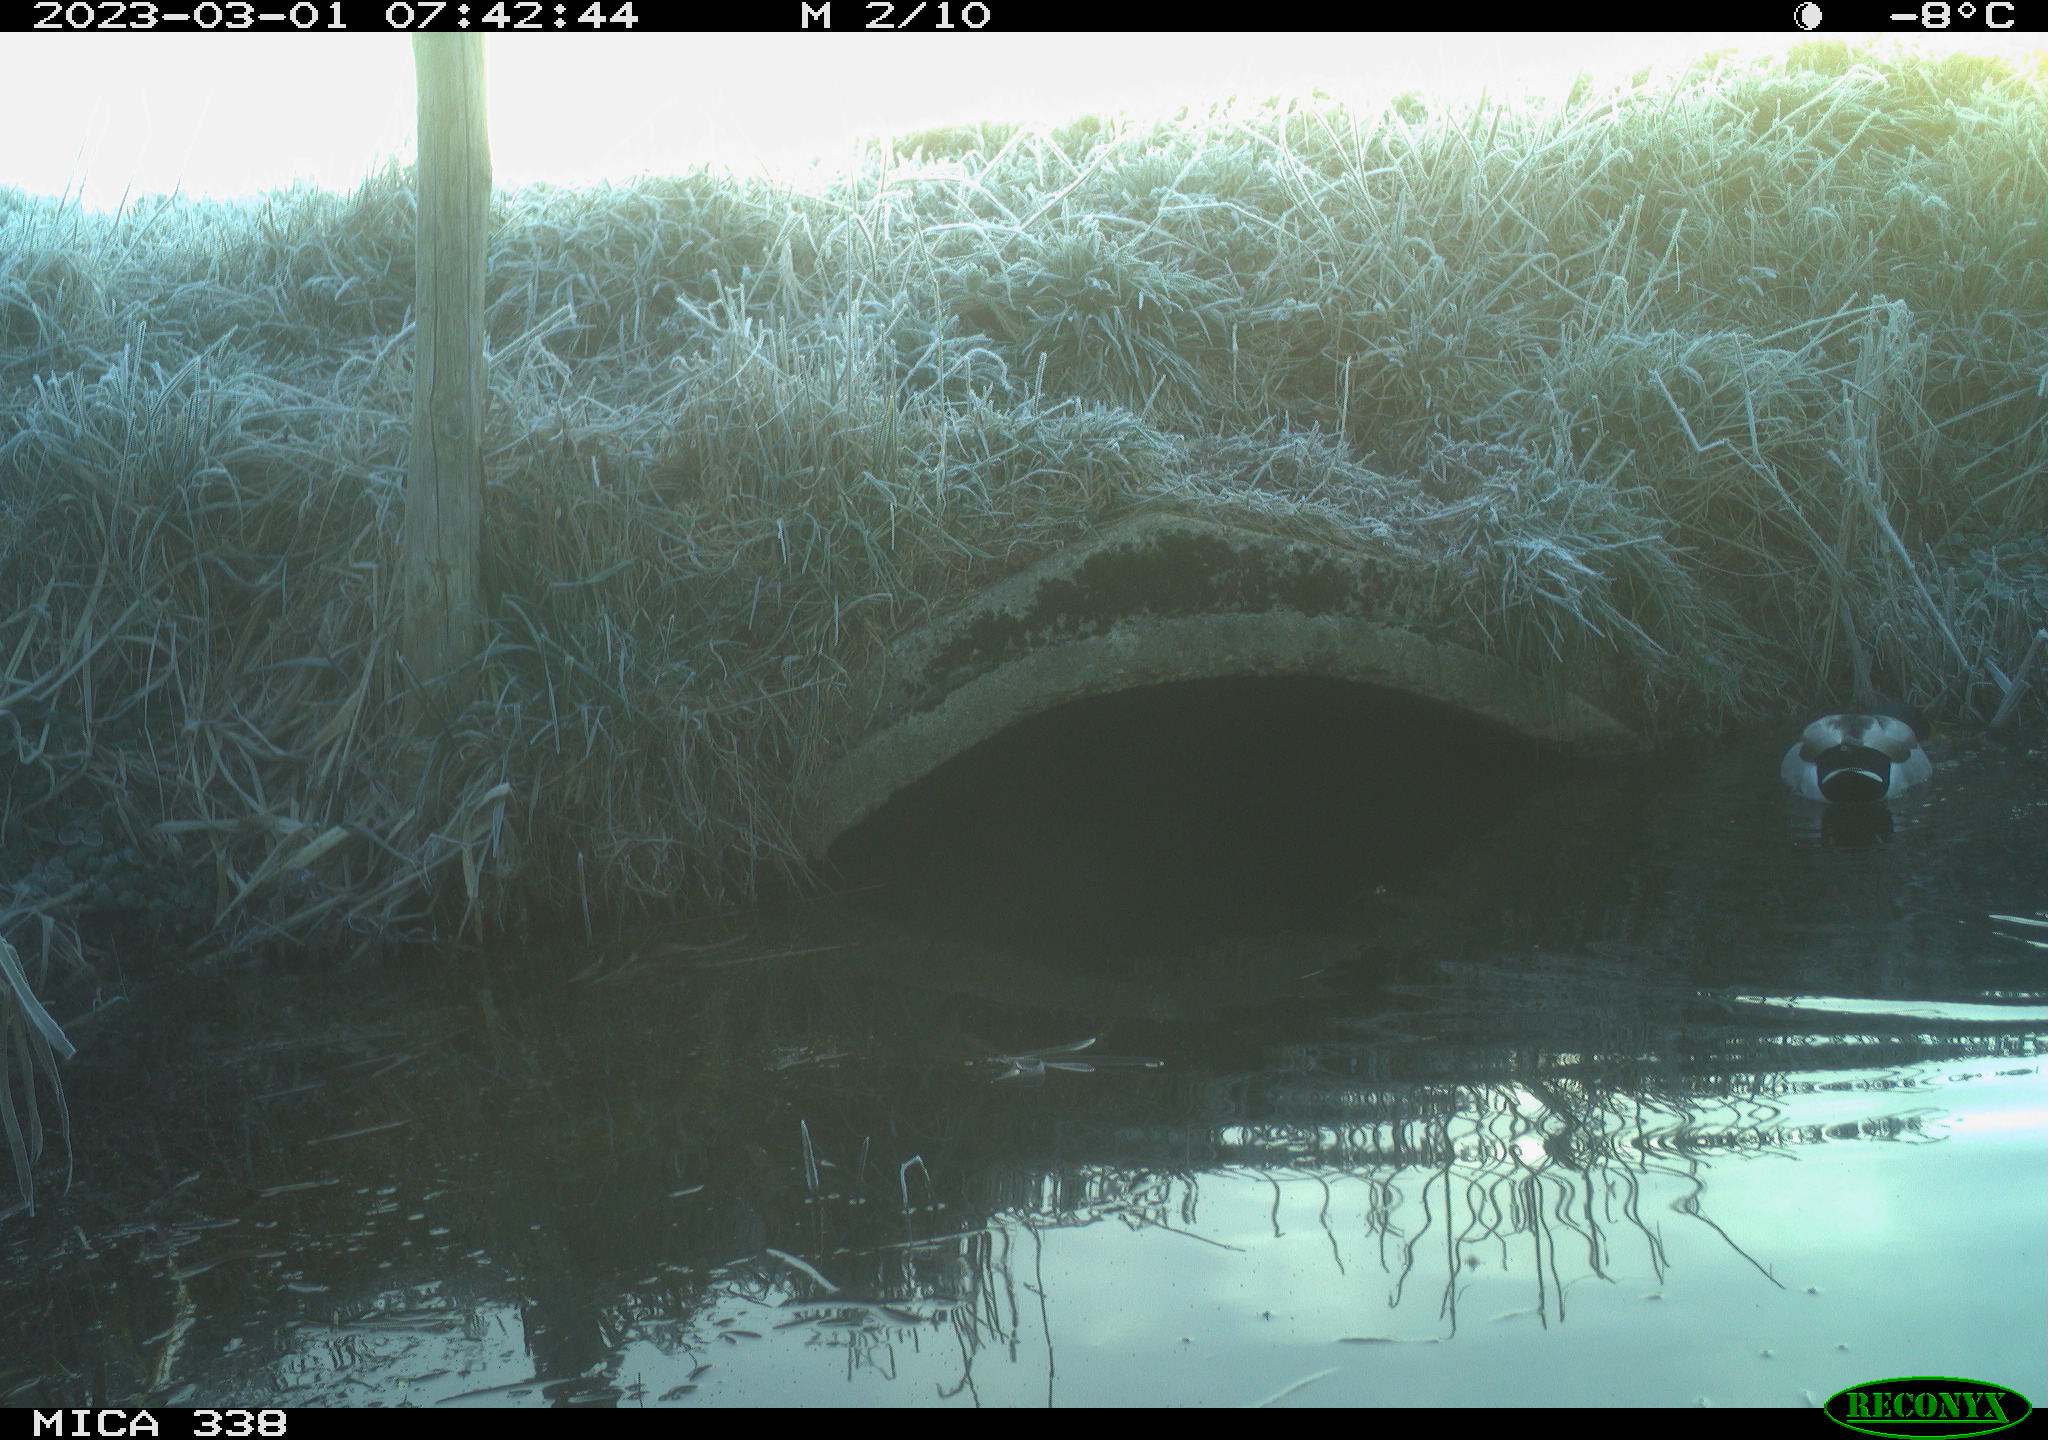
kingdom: Animalia
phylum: Chordata
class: Aves
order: Anseriformes
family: Anatidae
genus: Anas
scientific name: Anas
